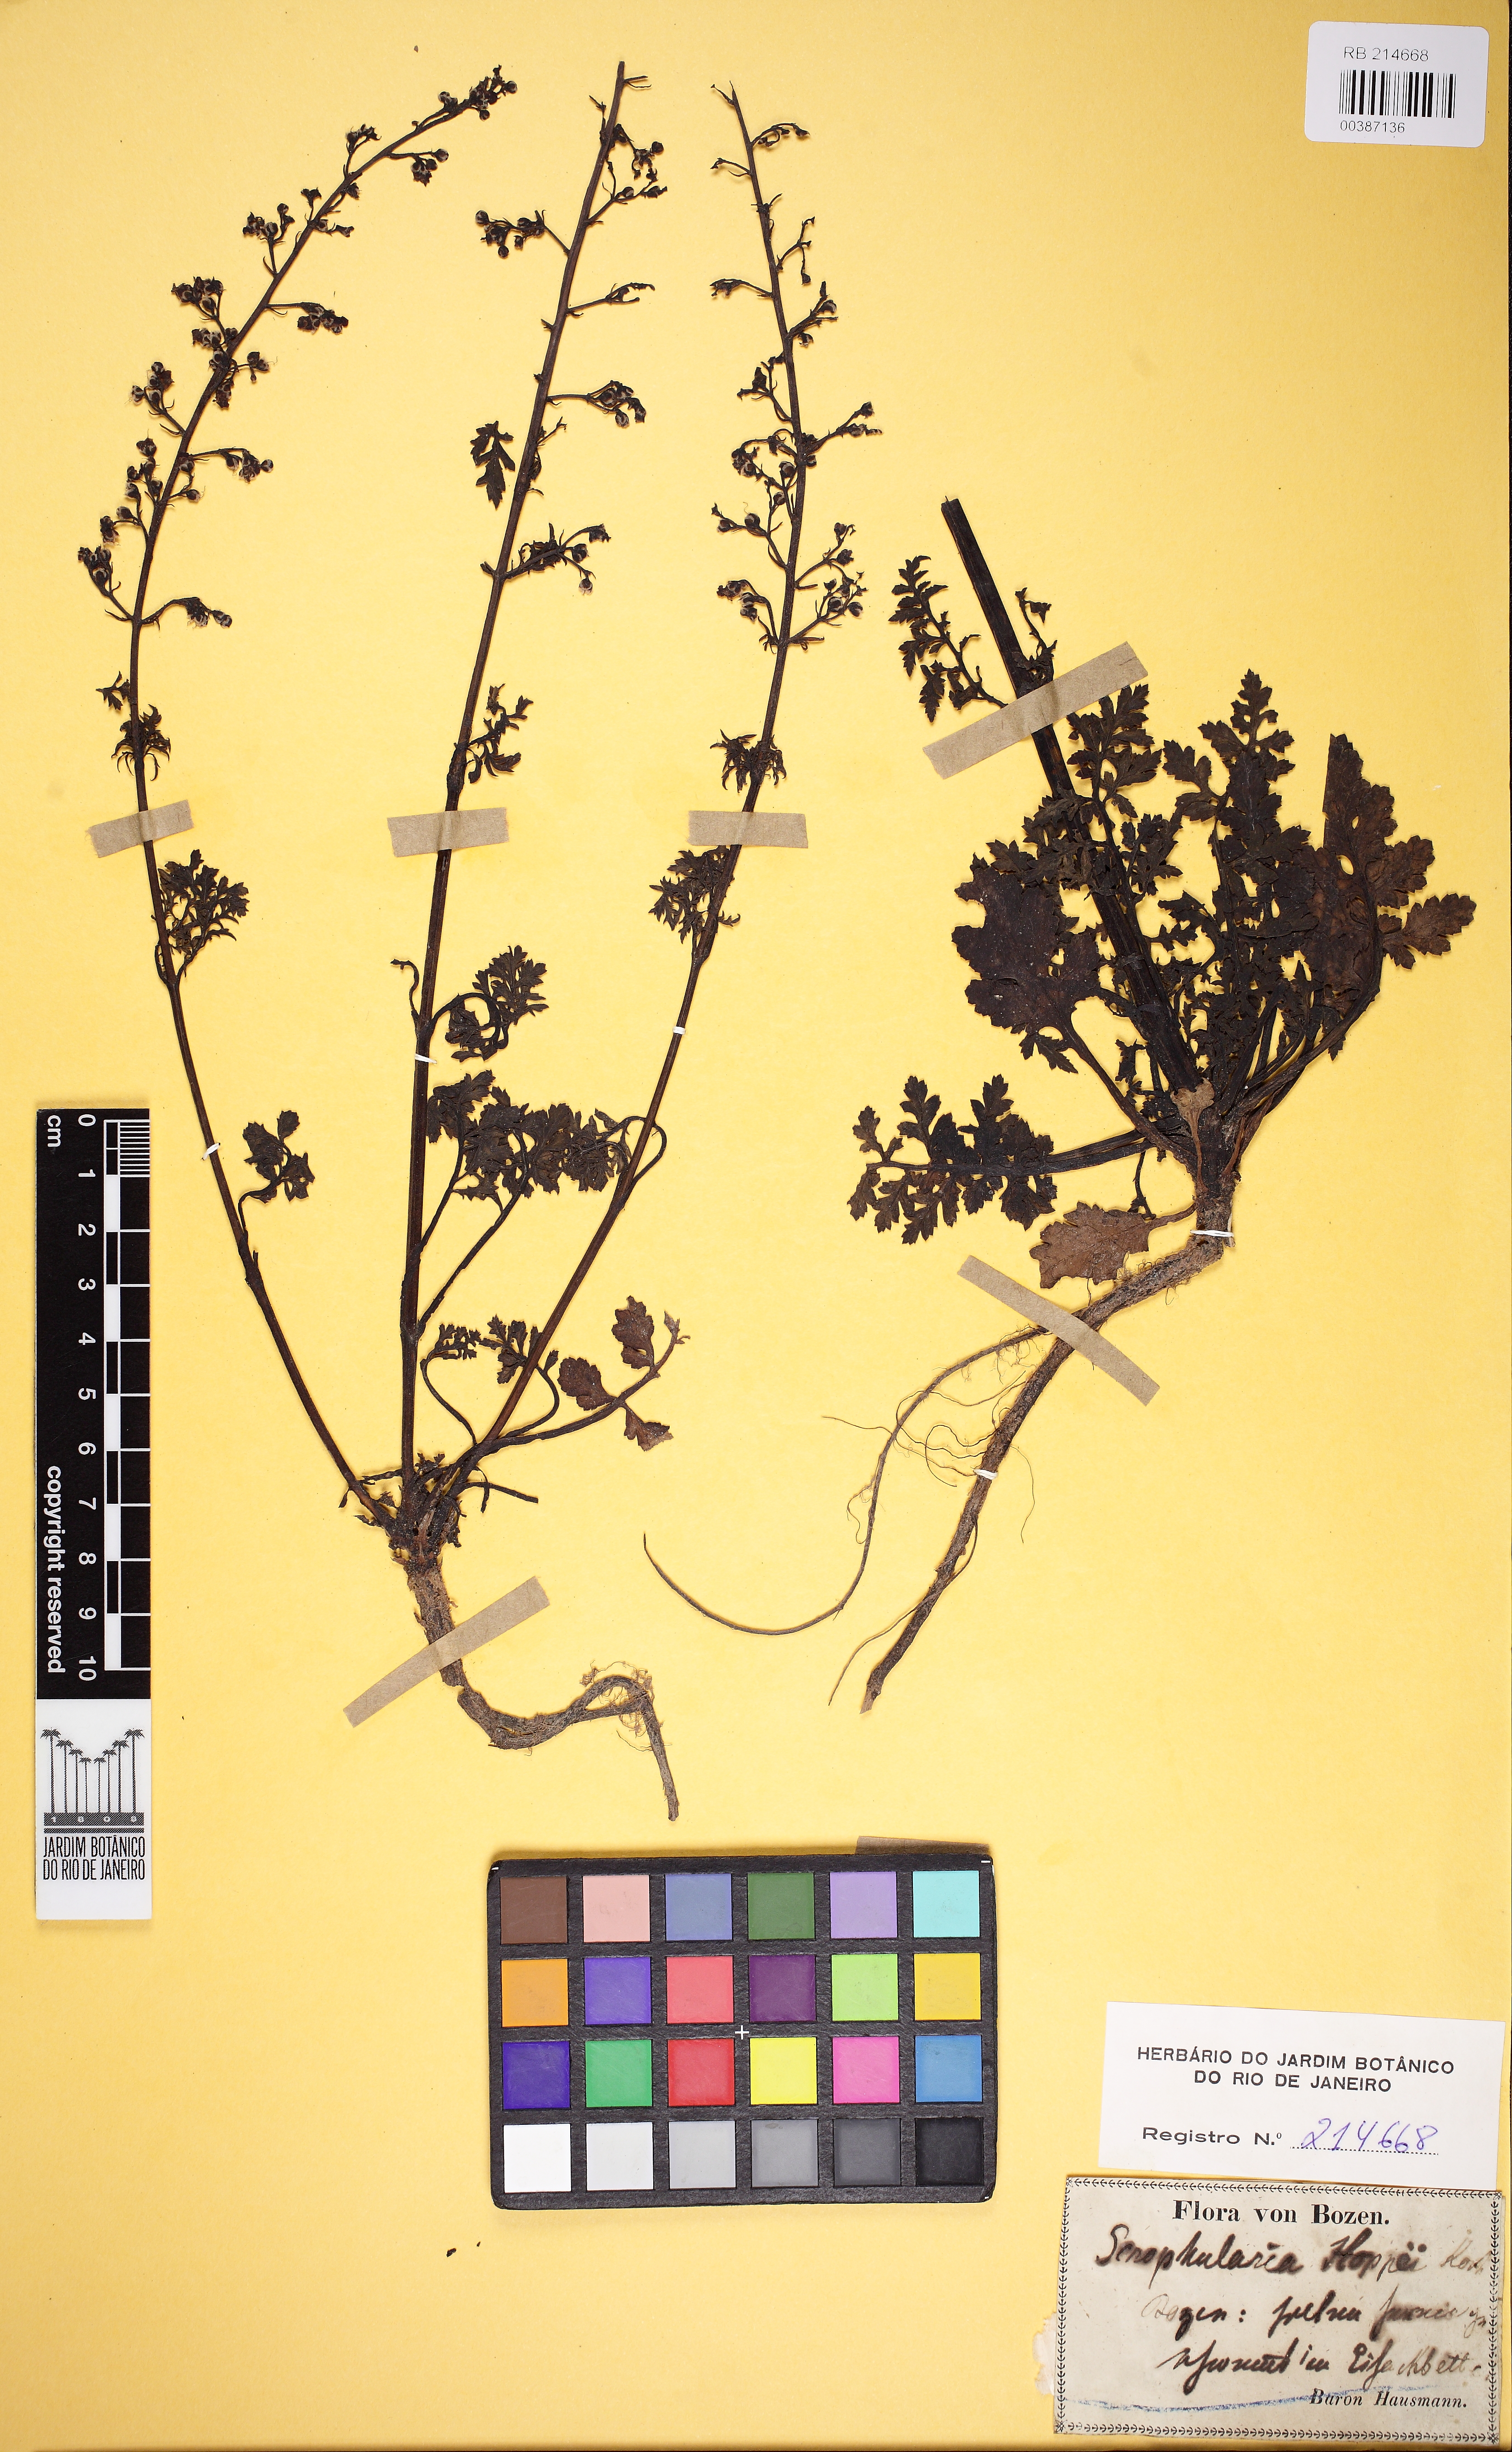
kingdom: Plantae
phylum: Tracheophyta
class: Magnoliopsida
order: Lamiales
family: Scrophulariaceae
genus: Scrophularia
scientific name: Scrophularia canina
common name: French figwort
